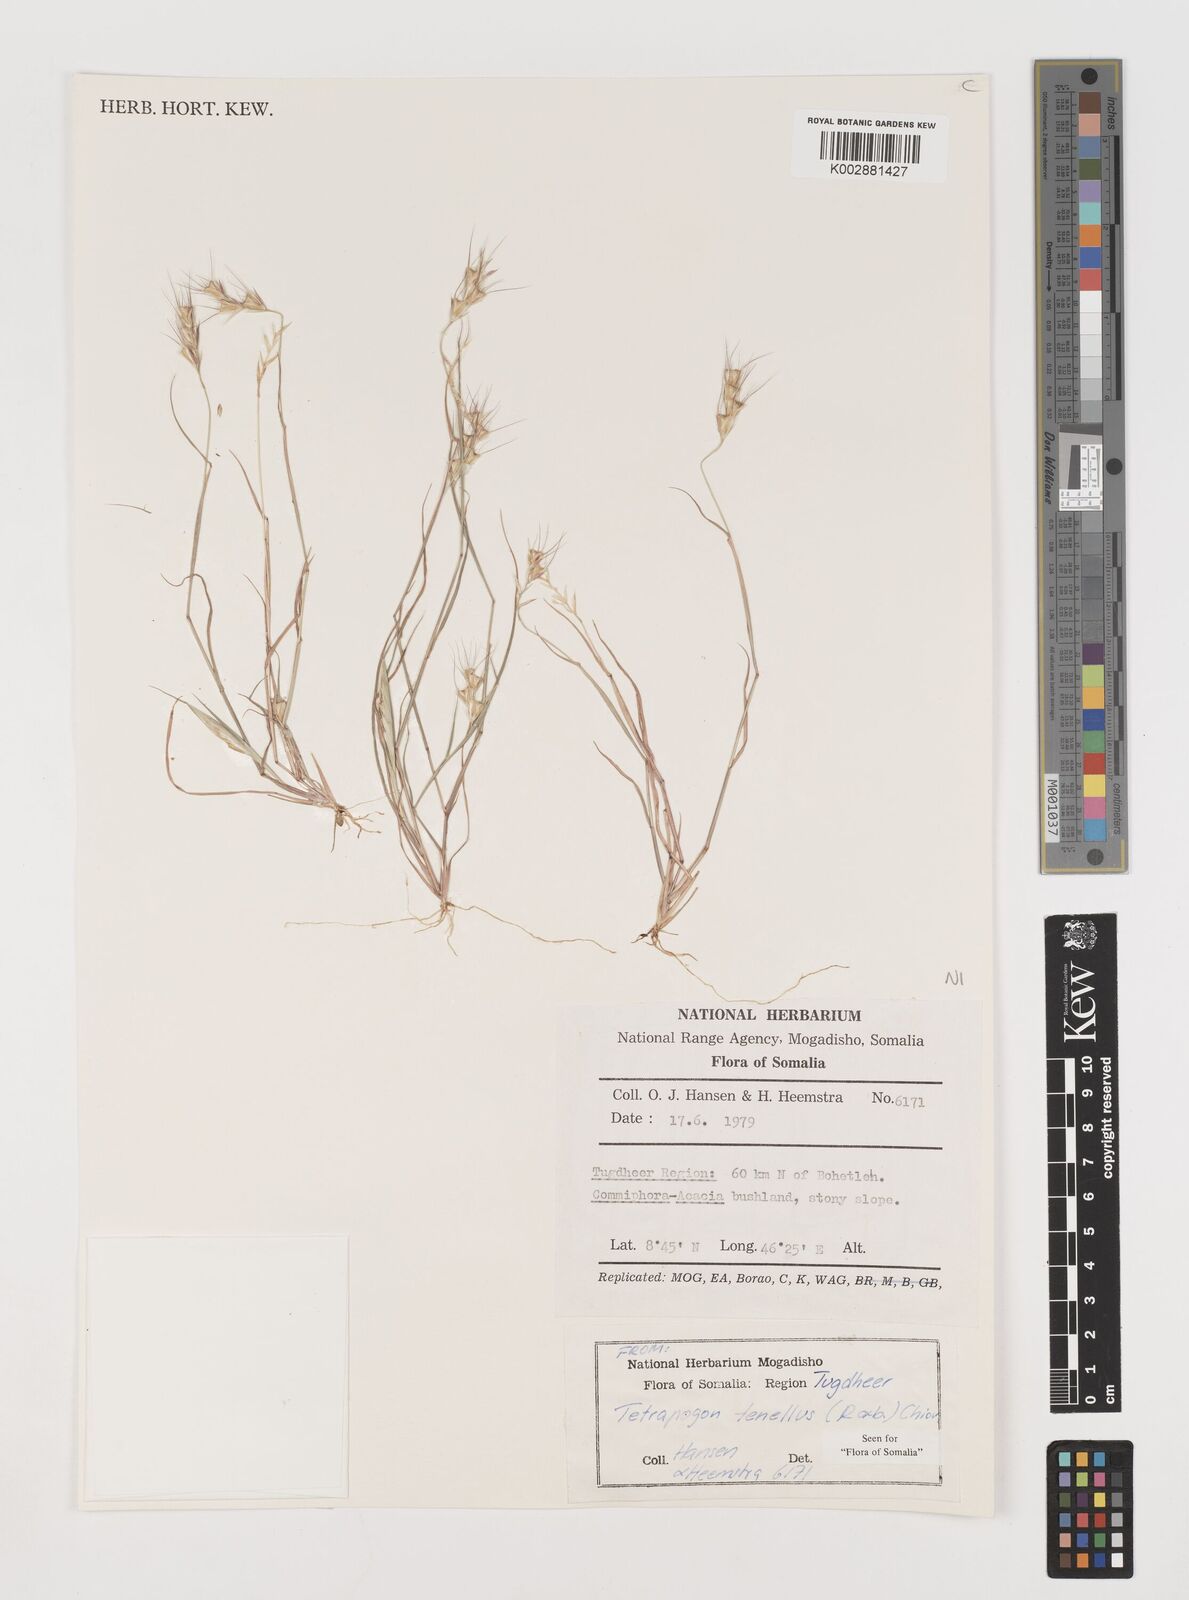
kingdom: Plantae
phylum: Tracheophyta
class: Liliopsida
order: Poales
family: Poaceae
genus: Tetrapogon
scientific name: Tetrapogon tenellus
